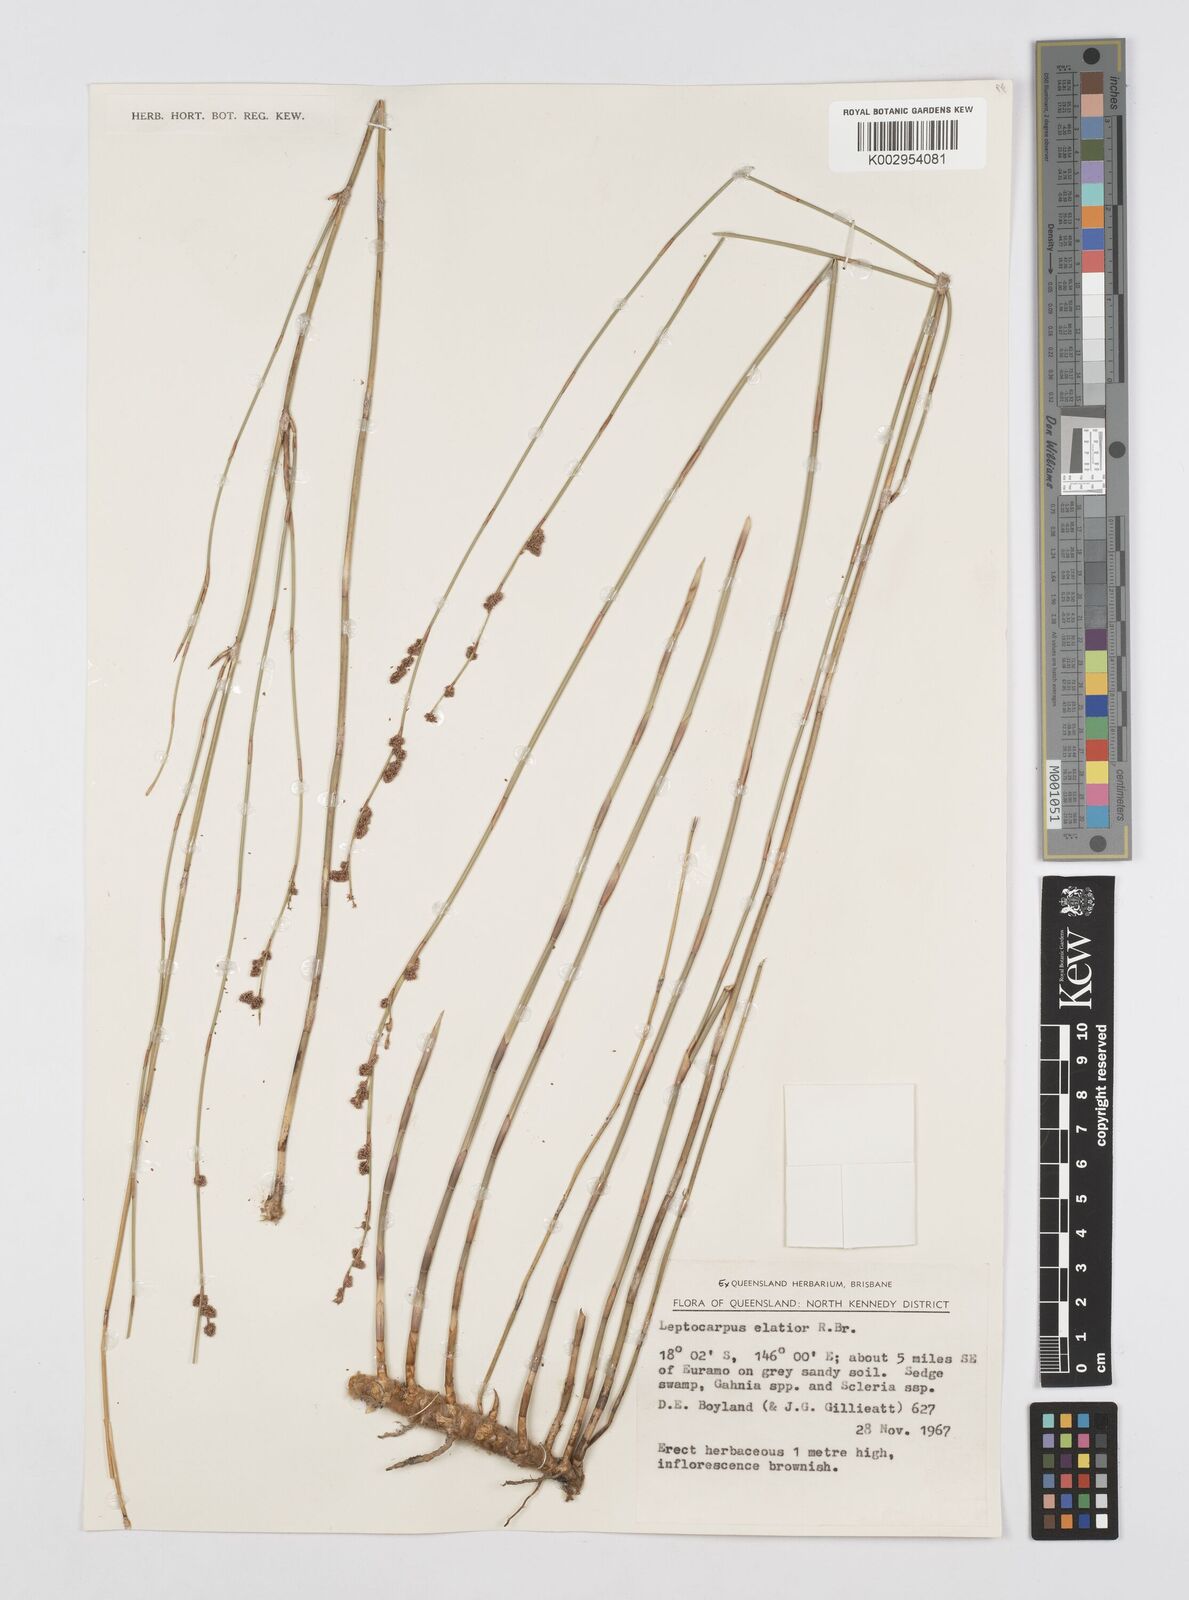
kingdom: Plantae
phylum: Tracheophyta
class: Liliopsida
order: Poales
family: Restionaceae
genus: Dapsilanthus
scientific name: Dapsilanthus elatior
